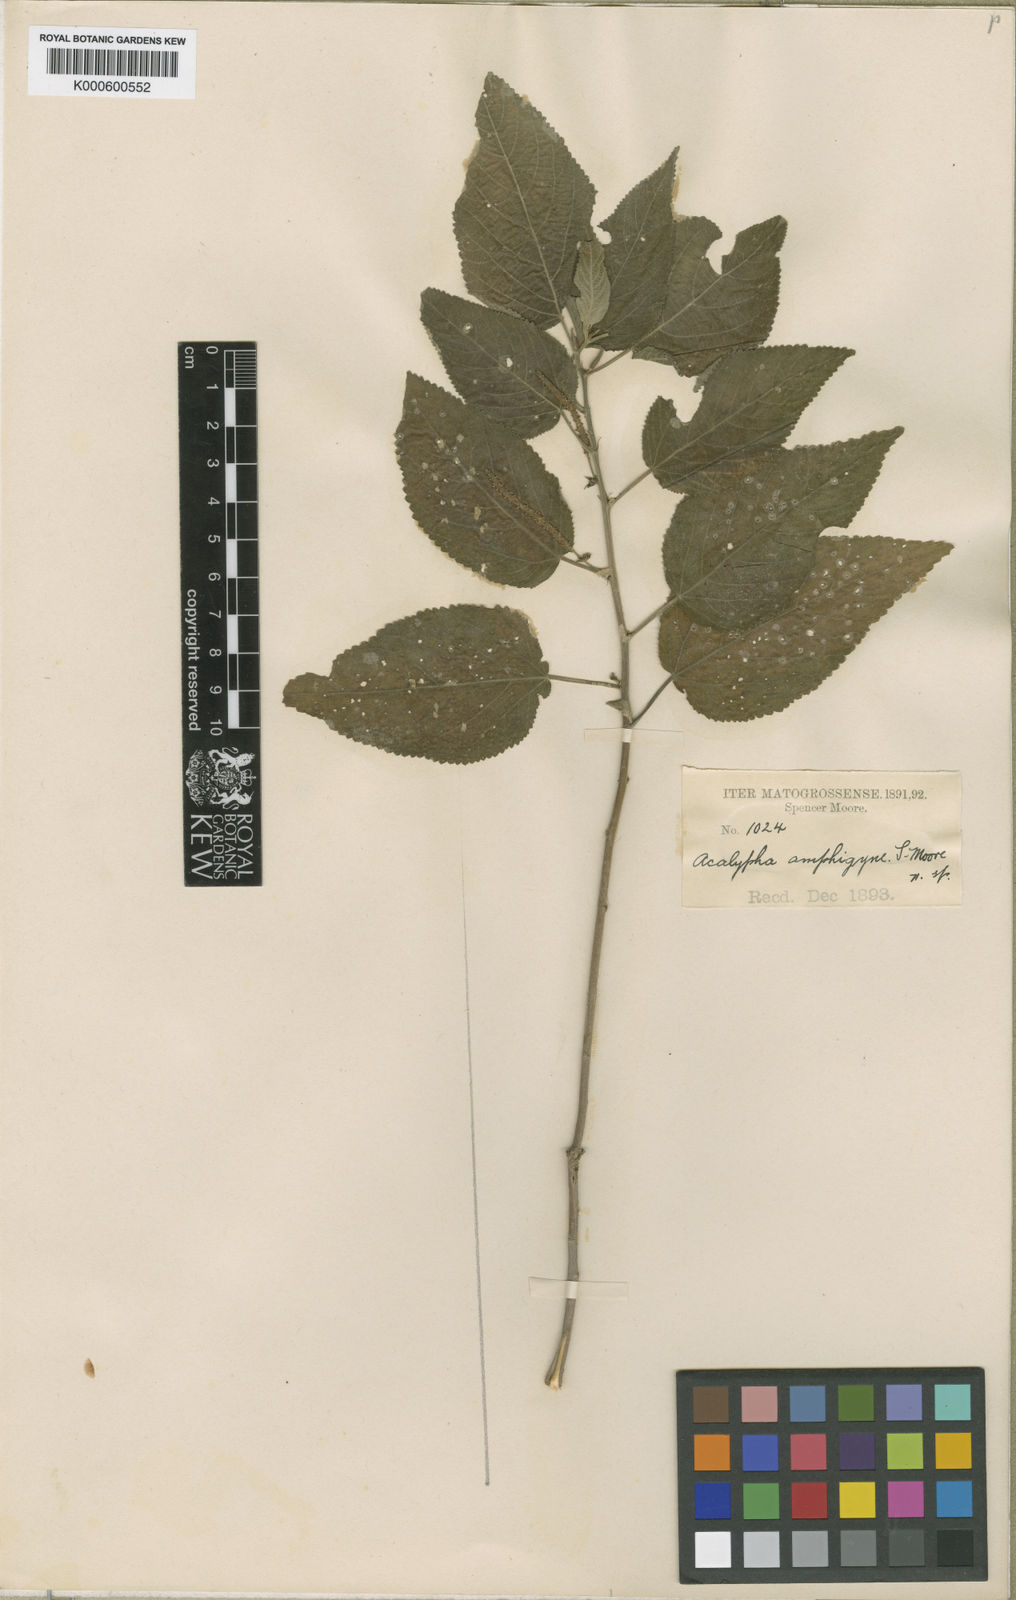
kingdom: Plantae
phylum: Tracheophyta
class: Magnoliopsida
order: Malpighiales
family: Euphorbiaceae
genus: Acalypha
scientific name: Acalypha communis
